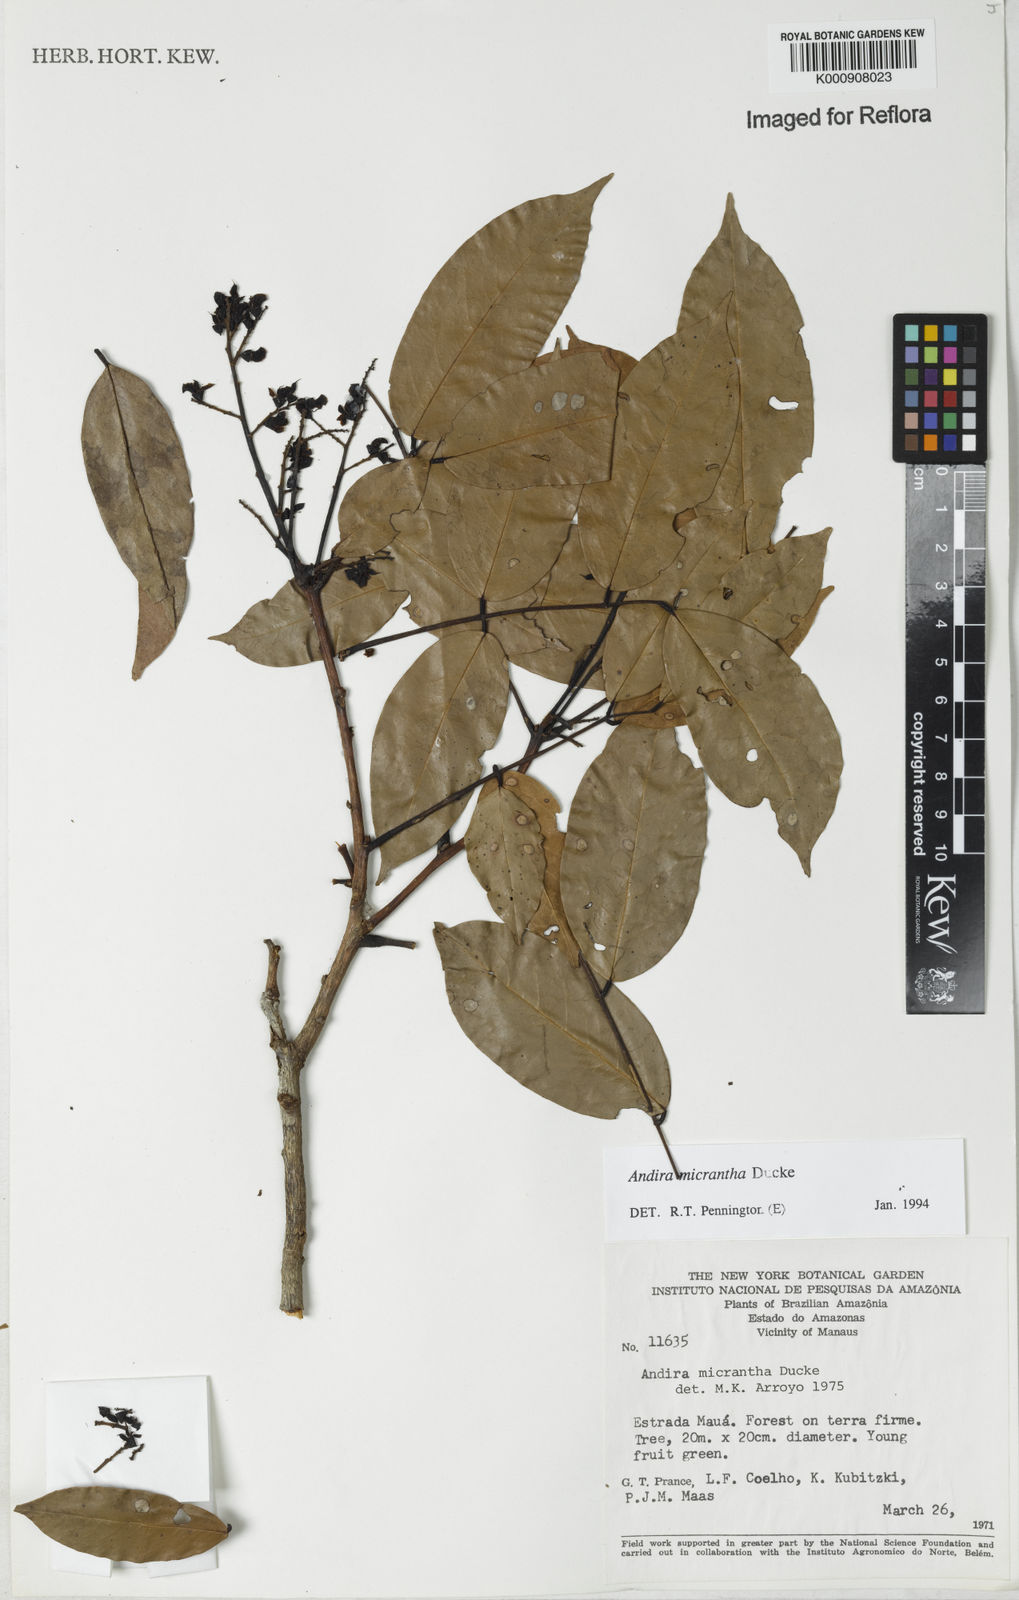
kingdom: Plantae
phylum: Tracheophyta
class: Magnoliopsida
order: Fabales
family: Fabaceae
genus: Andira
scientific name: Andira micrantha
